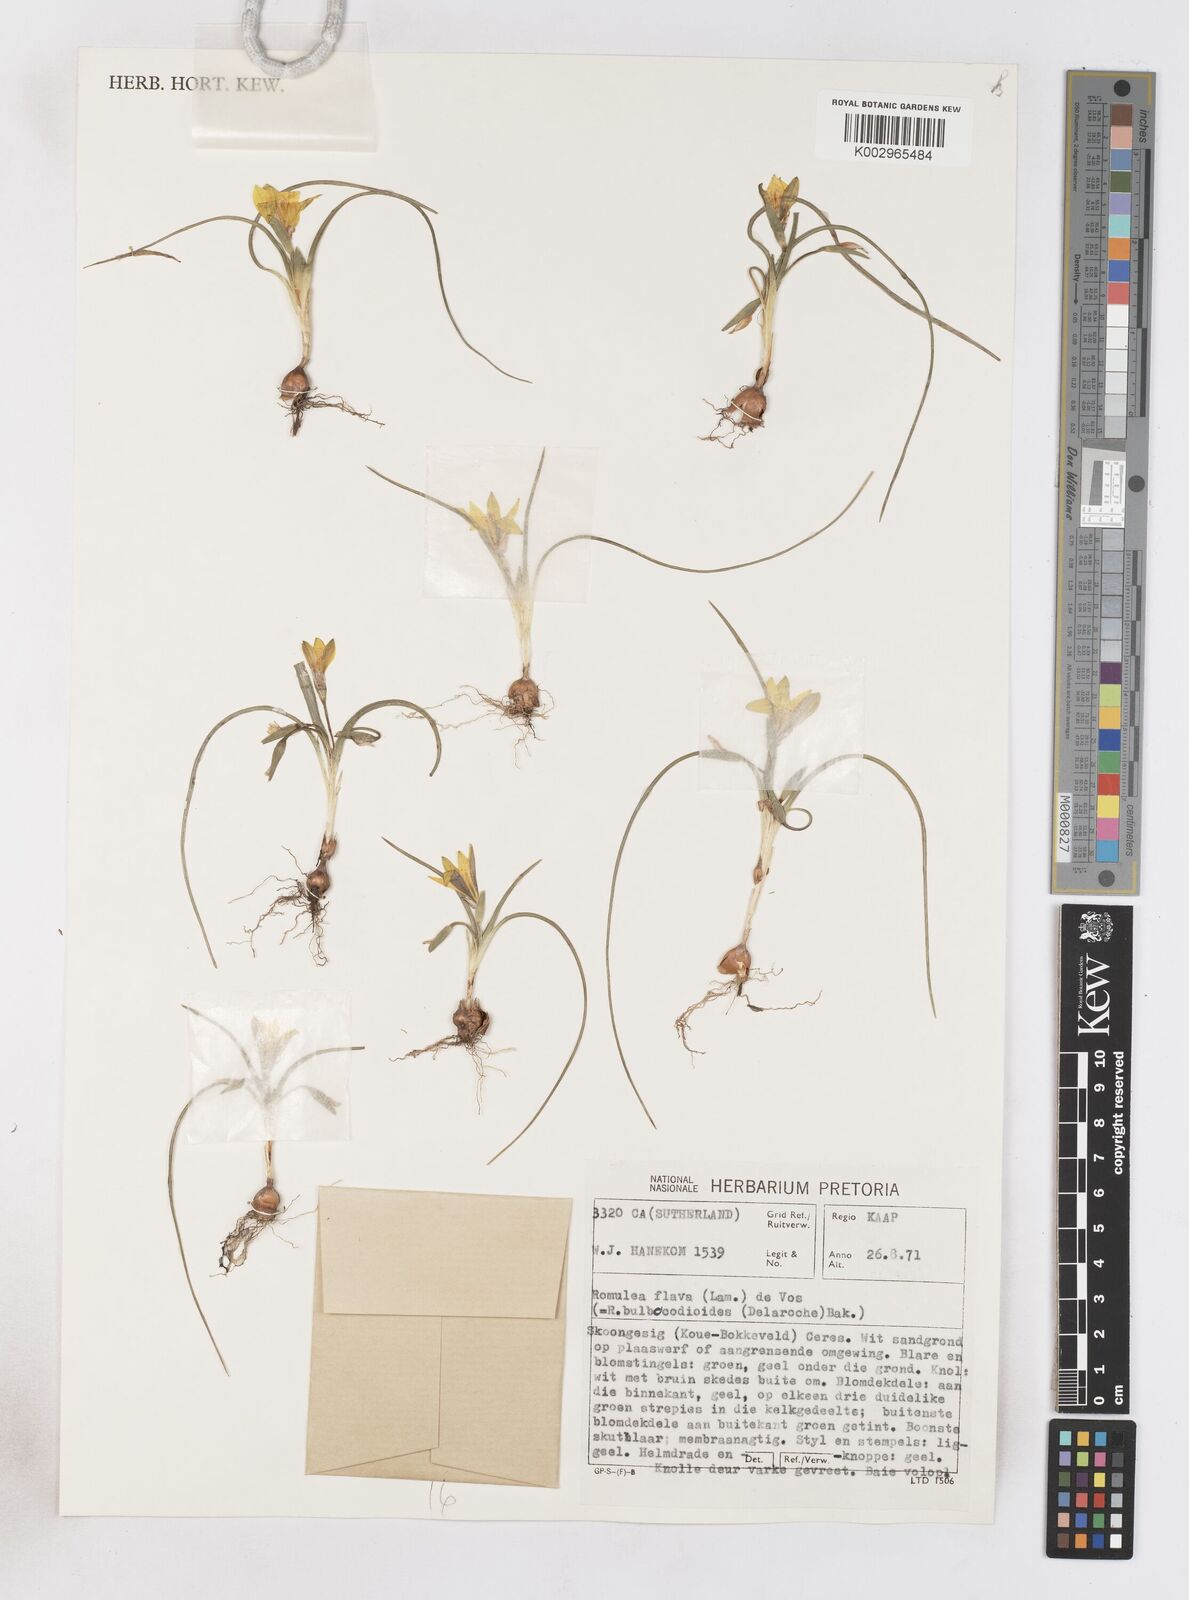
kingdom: Plantae
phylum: Tracheophyta
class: Liliopsida
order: Asparagales
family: Iridaceae
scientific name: Iridaceae
